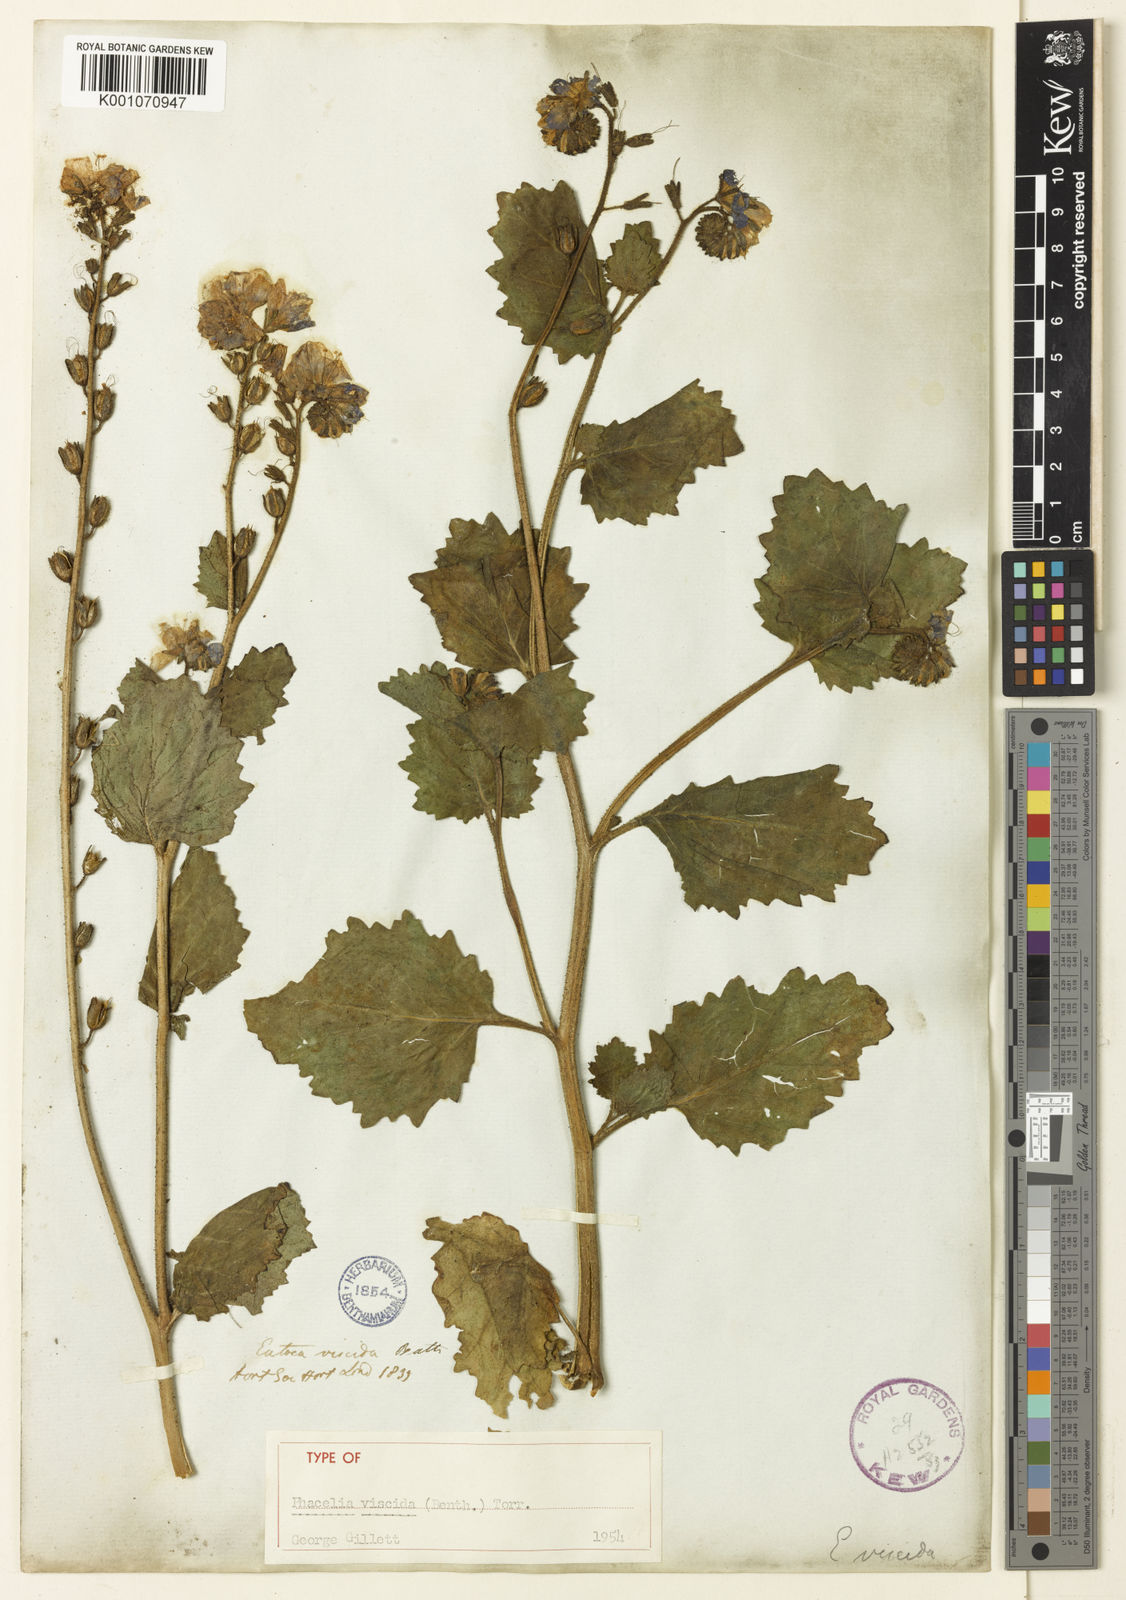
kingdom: Plantae
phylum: Tracheophyta
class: Magnoliopsida
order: Boraginales
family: Hydrophyllaceae
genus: Phacelia
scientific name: Phacelia viscida
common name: Sticky phacelia
